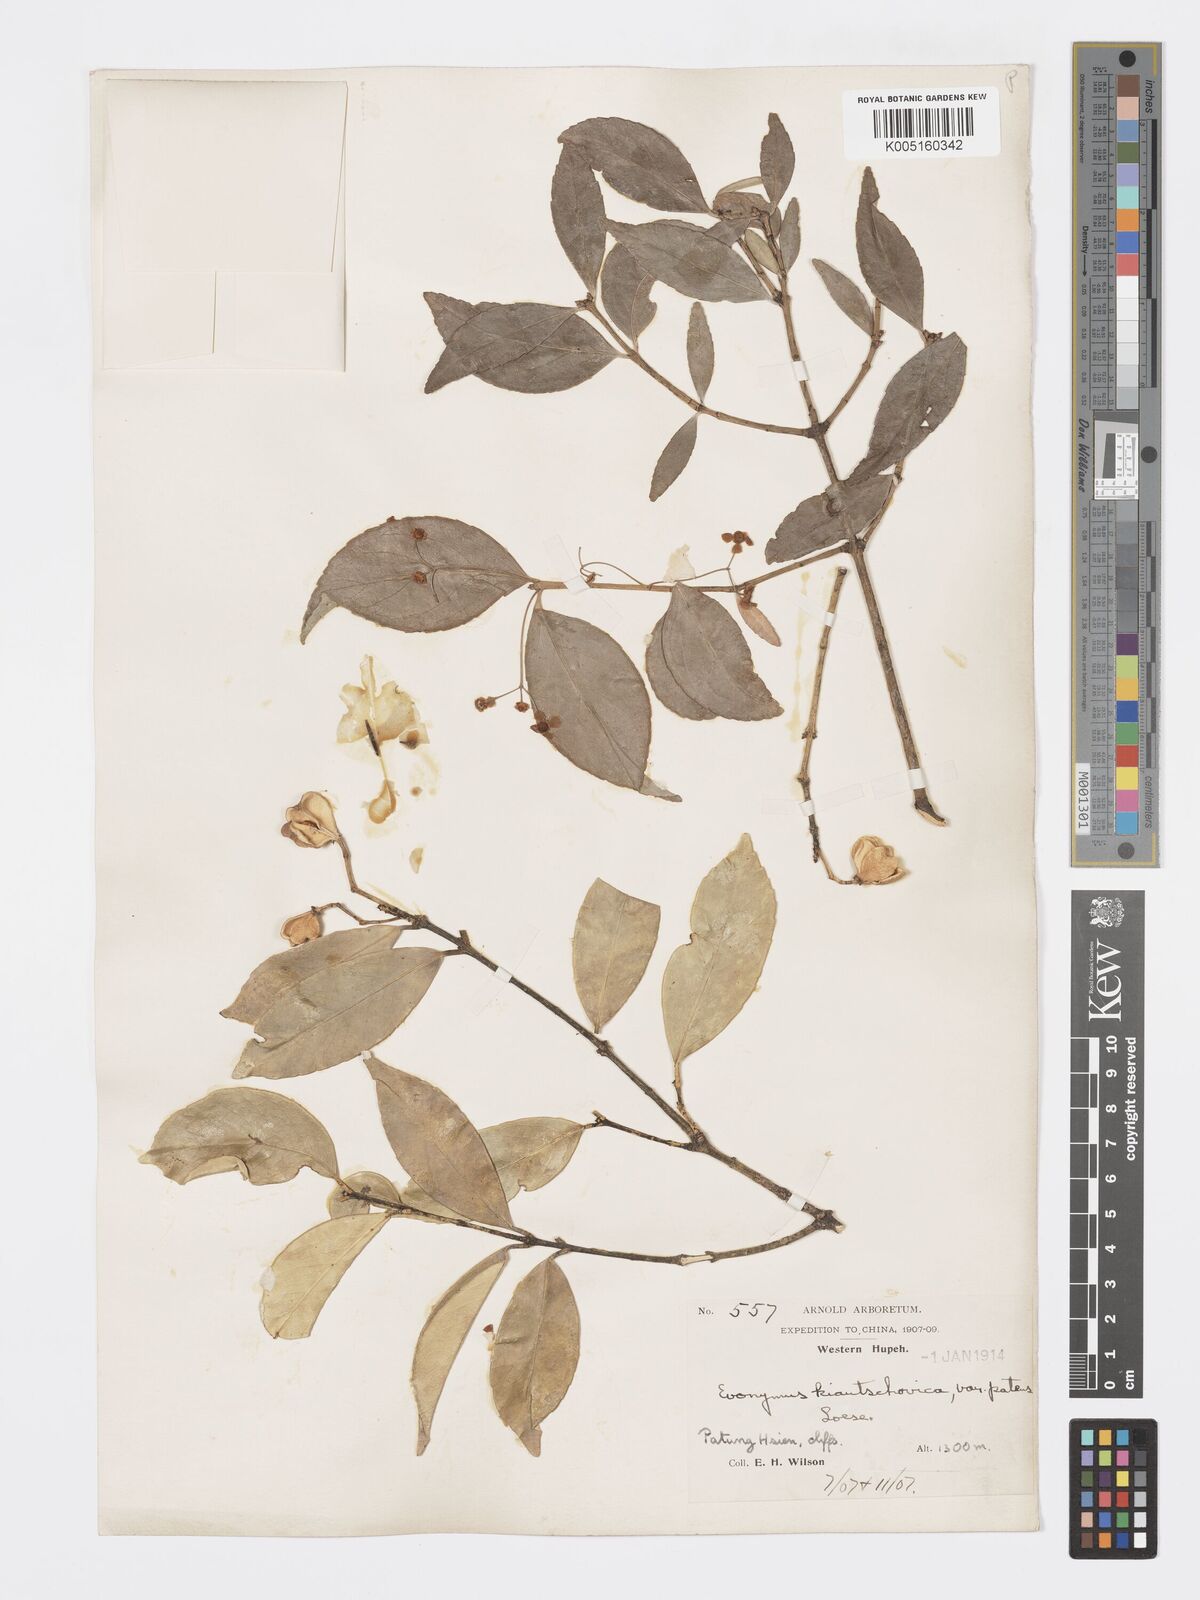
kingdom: Plantae
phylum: Tracheophyta
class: Magnoliopsida
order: Celastrales
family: Celastraceae
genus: Euonymus
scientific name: Euonymus
